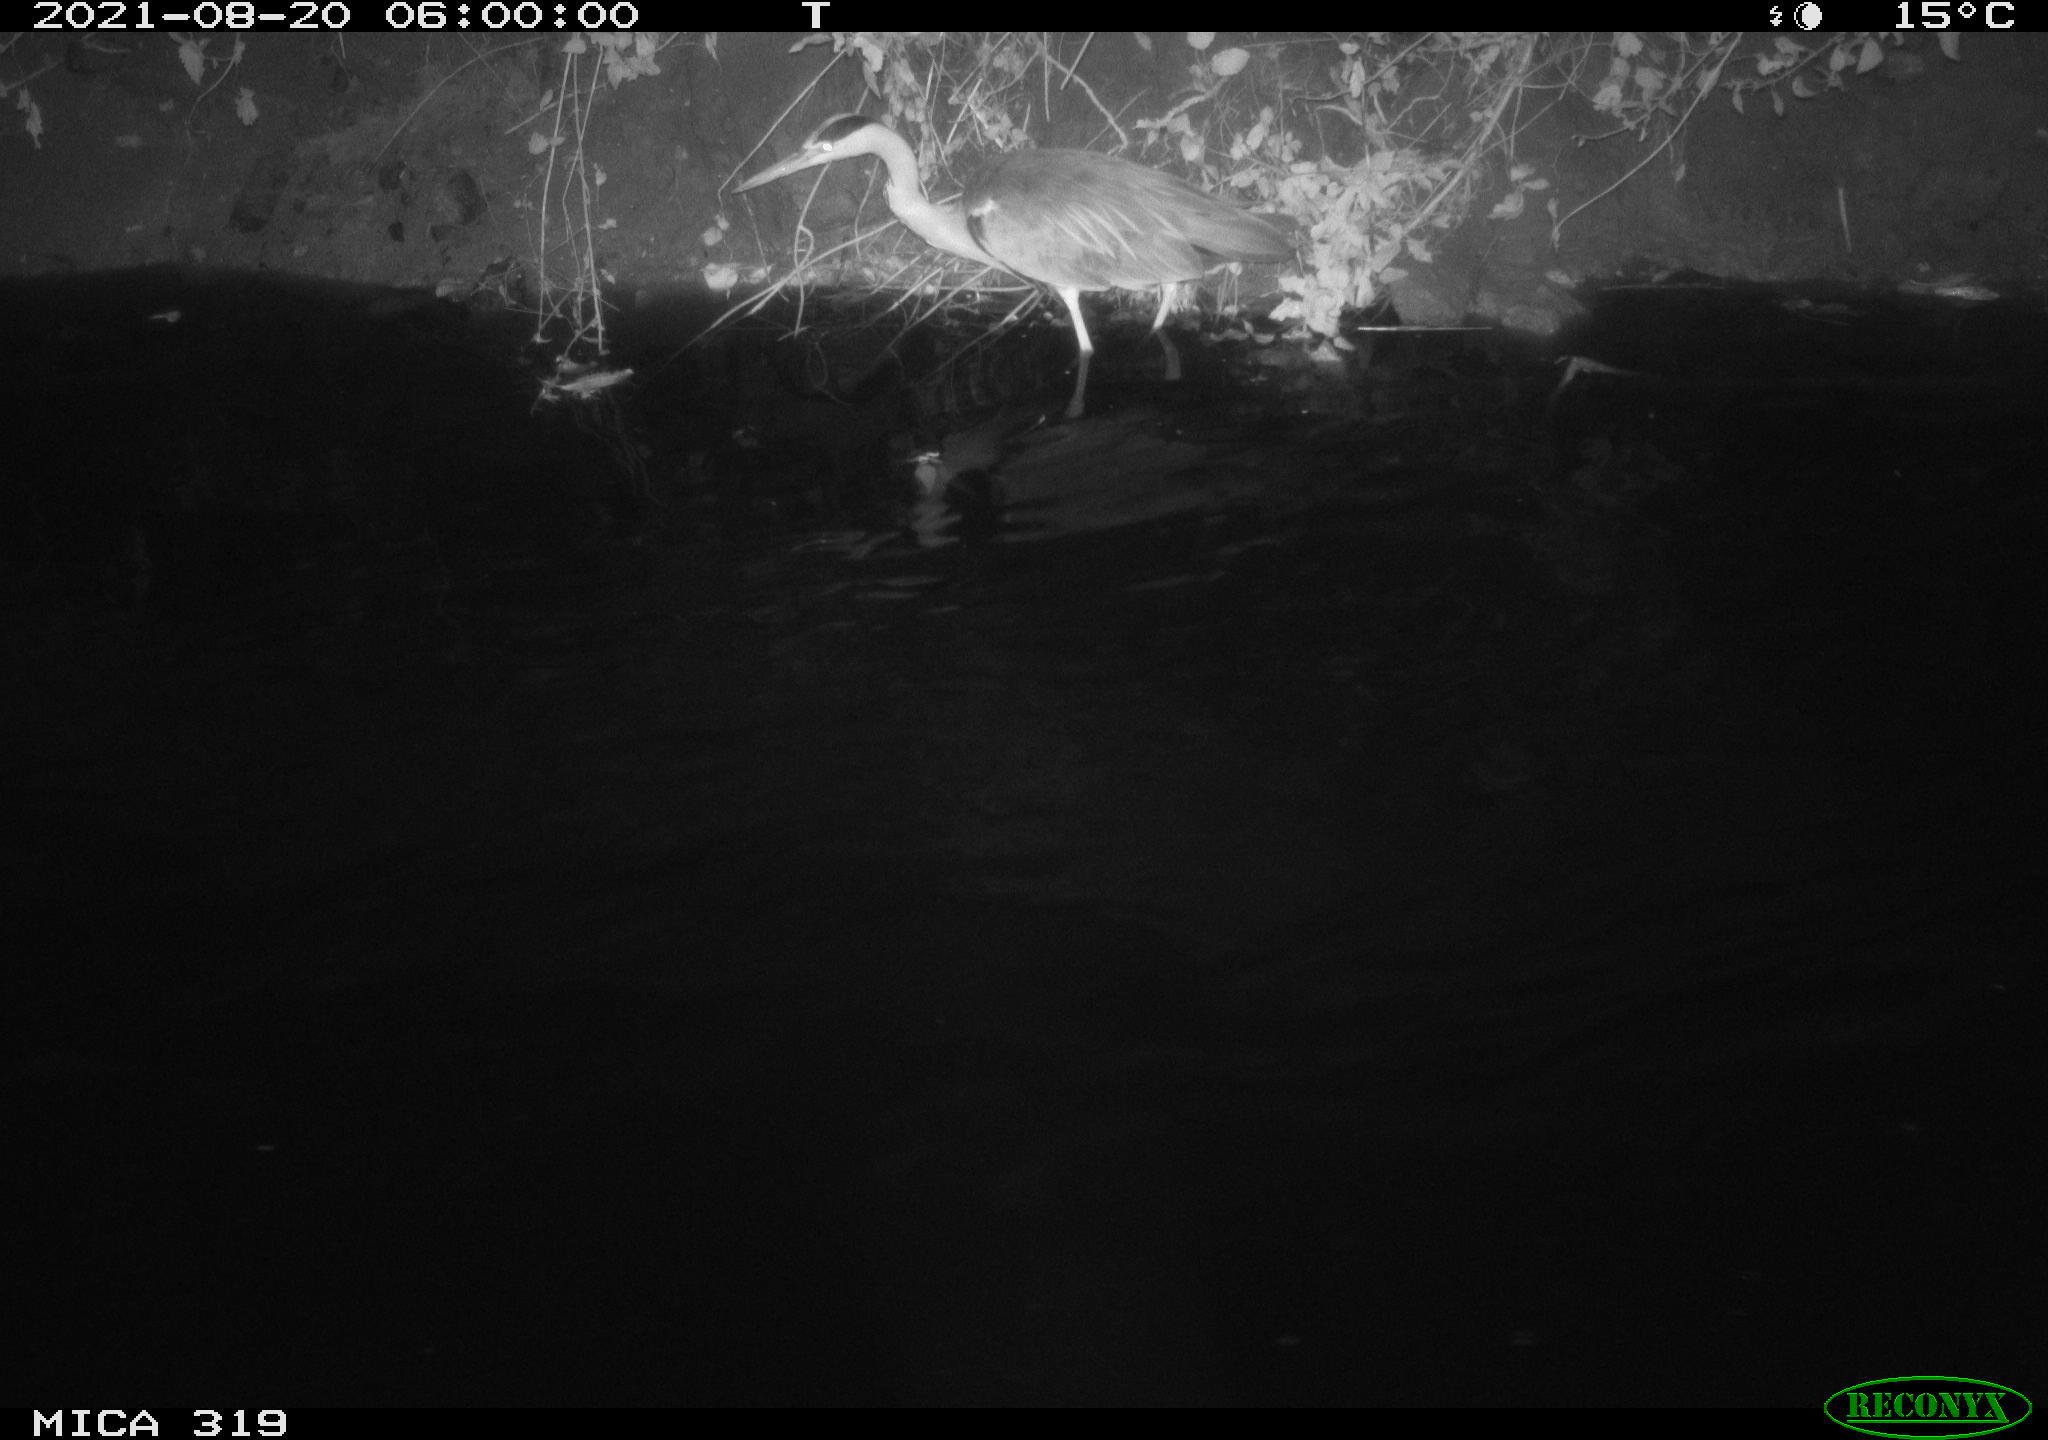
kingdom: Animalia
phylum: Chordata
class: Aves
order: Pelecaniformes
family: Ardeidae
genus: Ardea
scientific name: Ardea cinerea
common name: Grey heron
